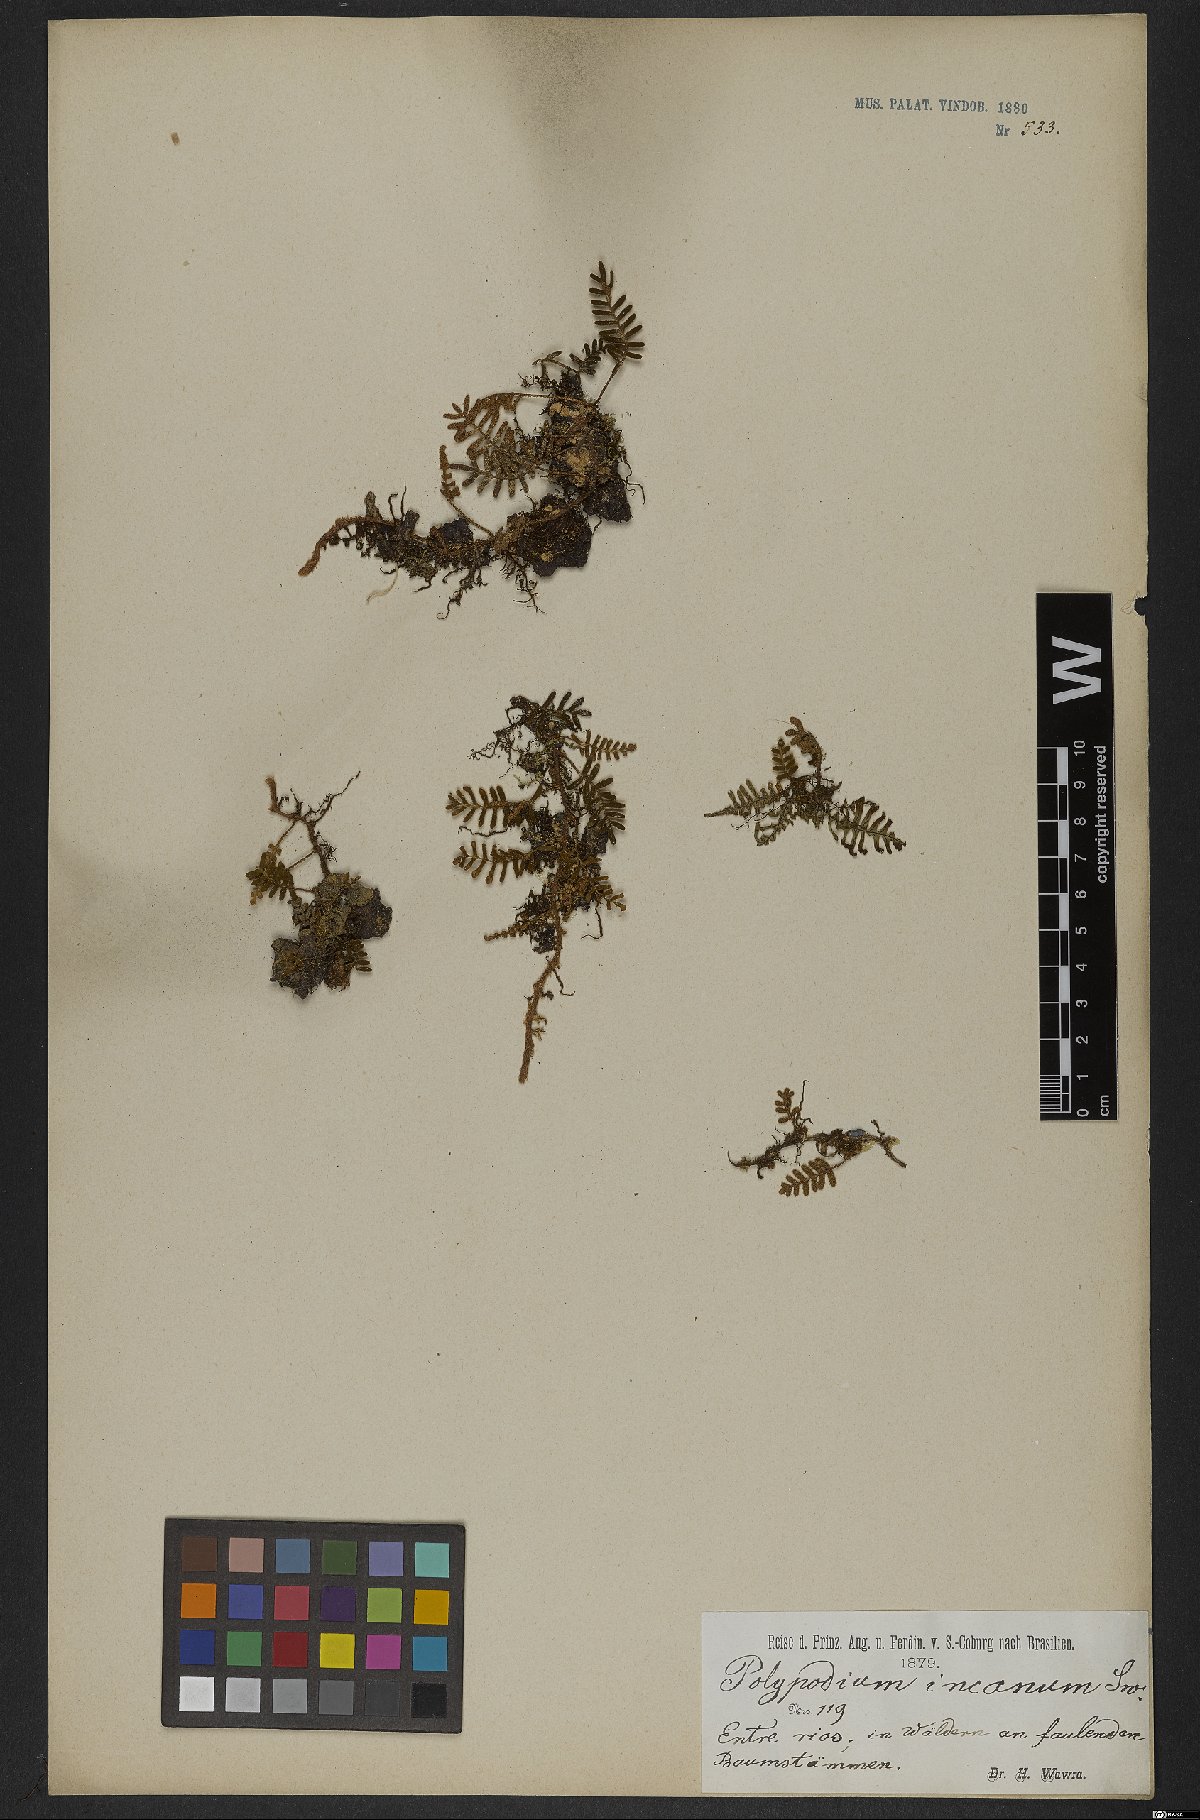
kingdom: Plantae
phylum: Tracheophyta
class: Polypodiopsida
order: Polypodiales
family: Polypodiaceae
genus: Pleopeltis
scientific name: Pleopeltis polypodioides
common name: Resurrection fern
